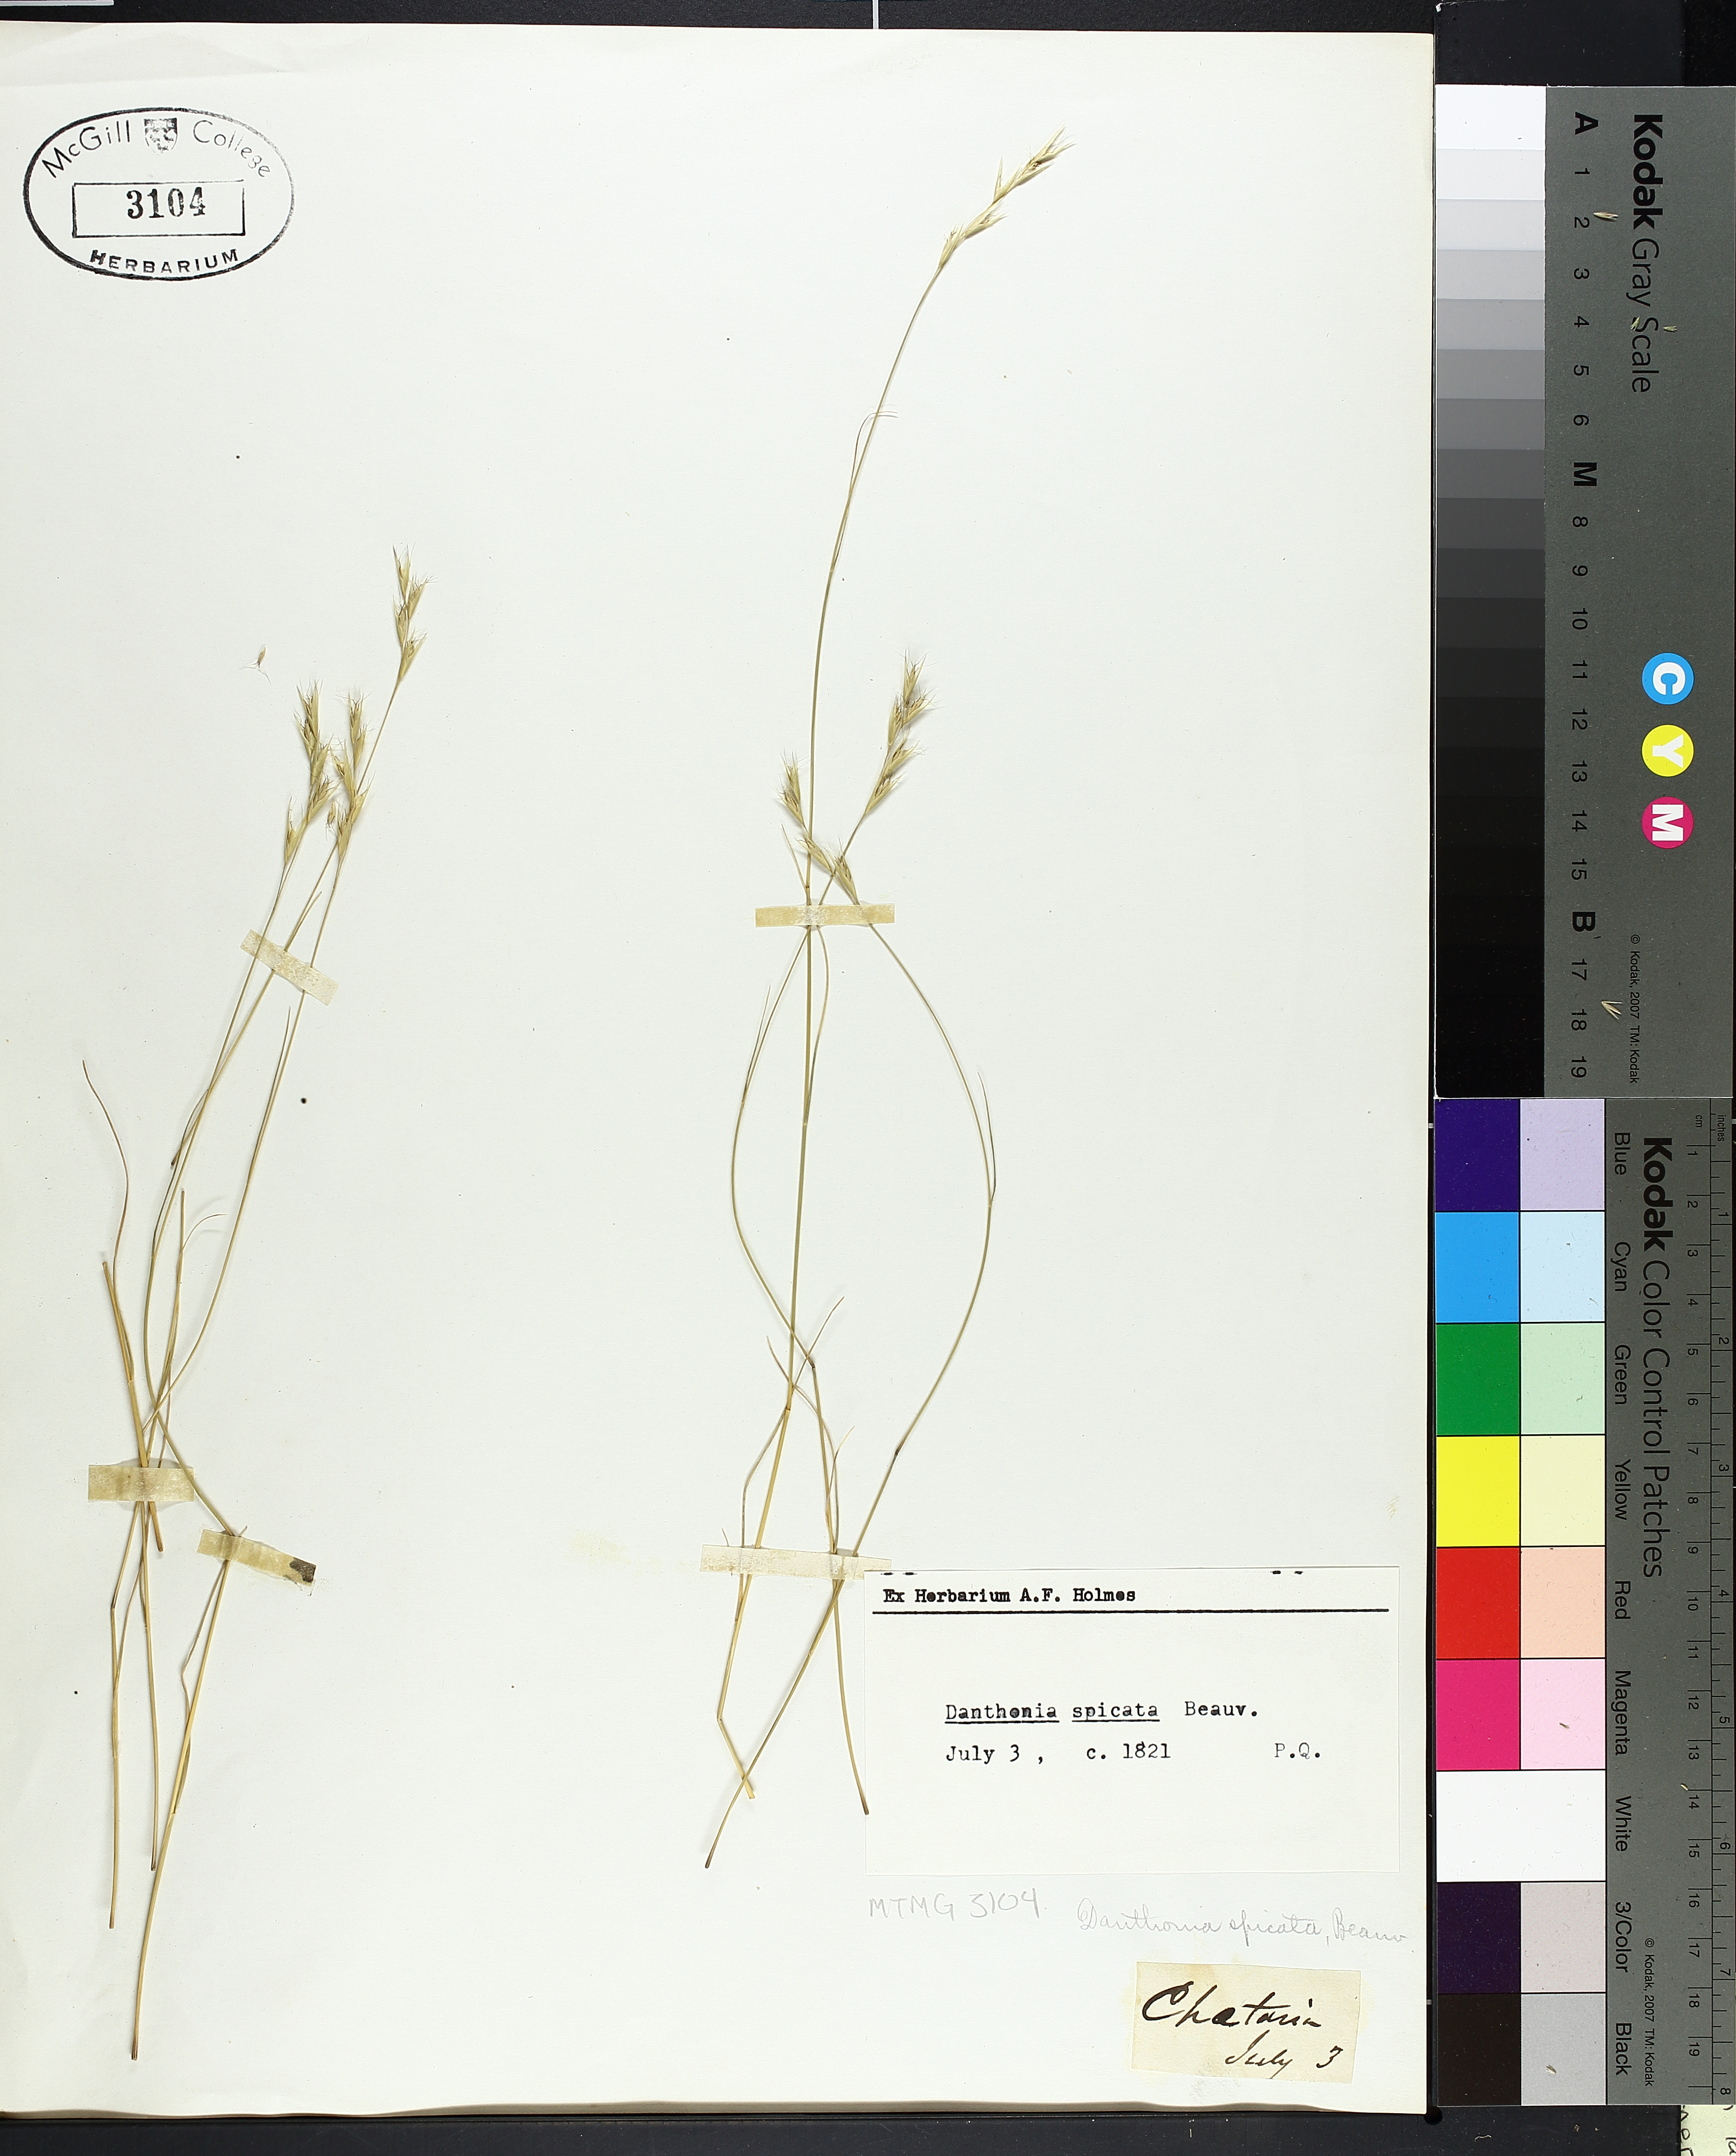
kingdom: Plantae
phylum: Tracheophyta
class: Liliopsida
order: Poales
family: Poaceae
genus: Danthonia
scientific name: Danthonia spicata
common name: Common wild oatgrass
